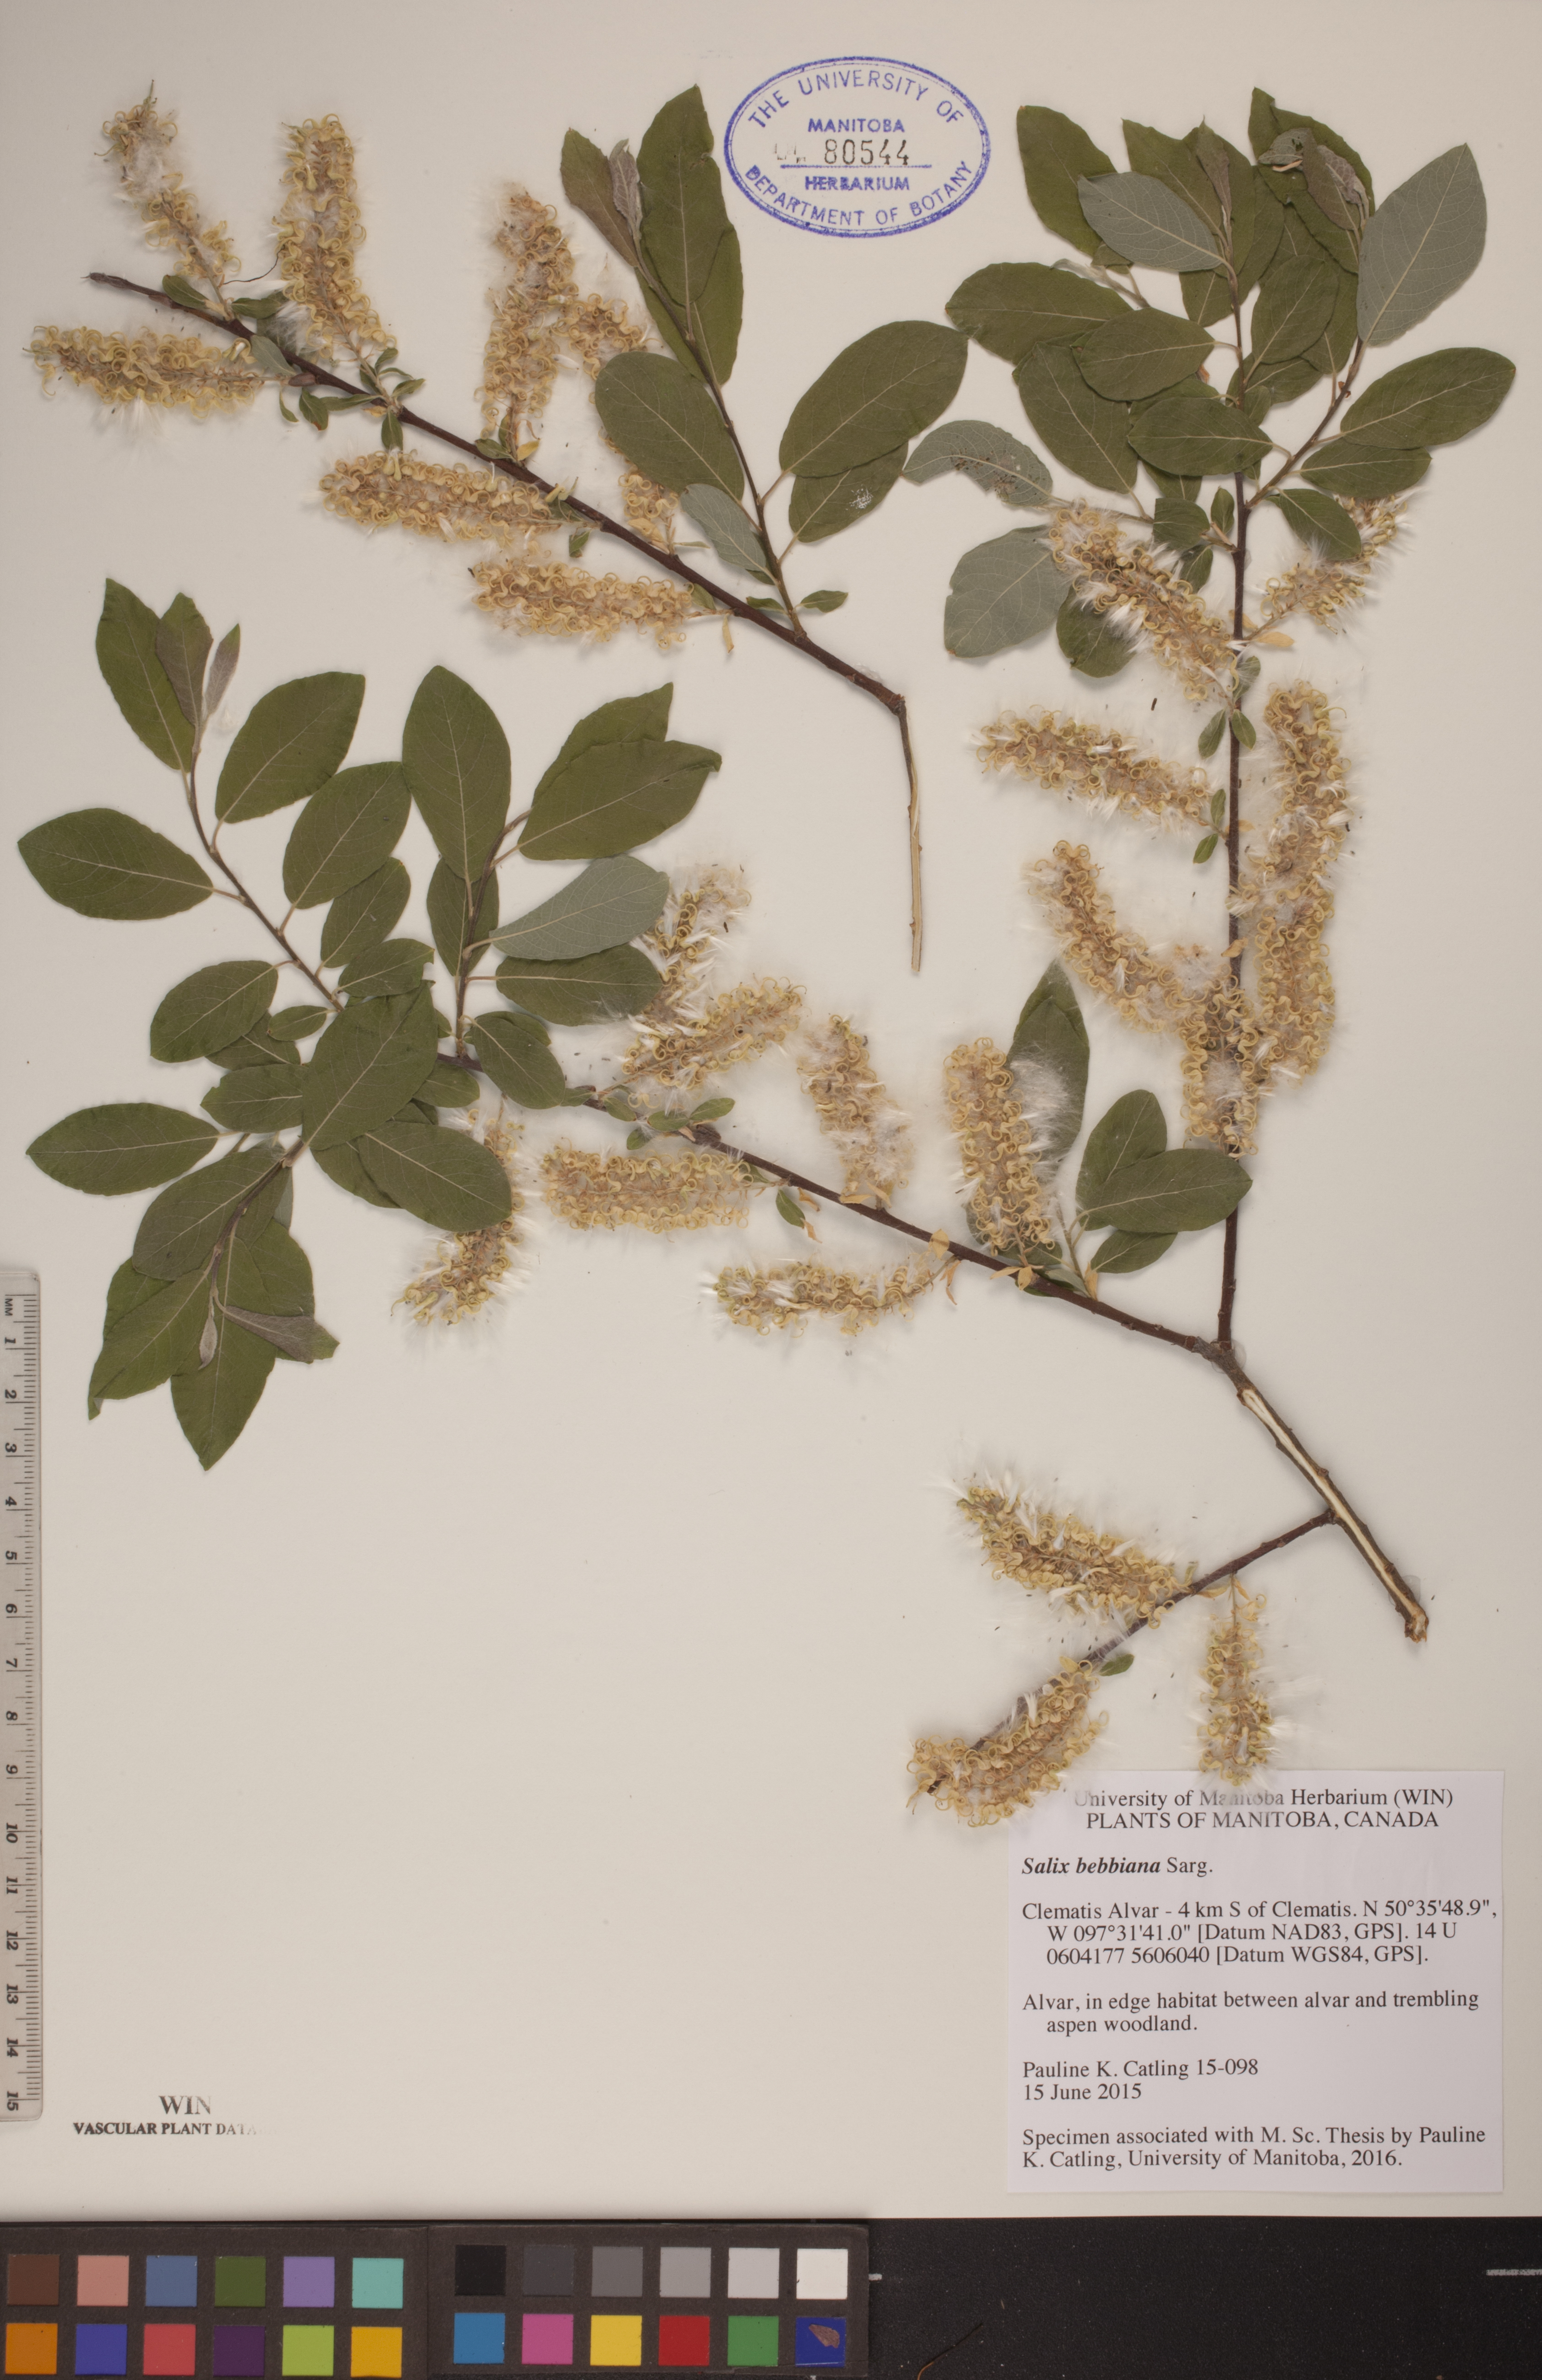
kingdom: Plantae
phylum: Tracheophyta
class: Magnoliopsida
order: Malpighiales
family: Salicaceae
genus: Salix
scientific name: Salix bebbiana
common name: Bebb's willow
